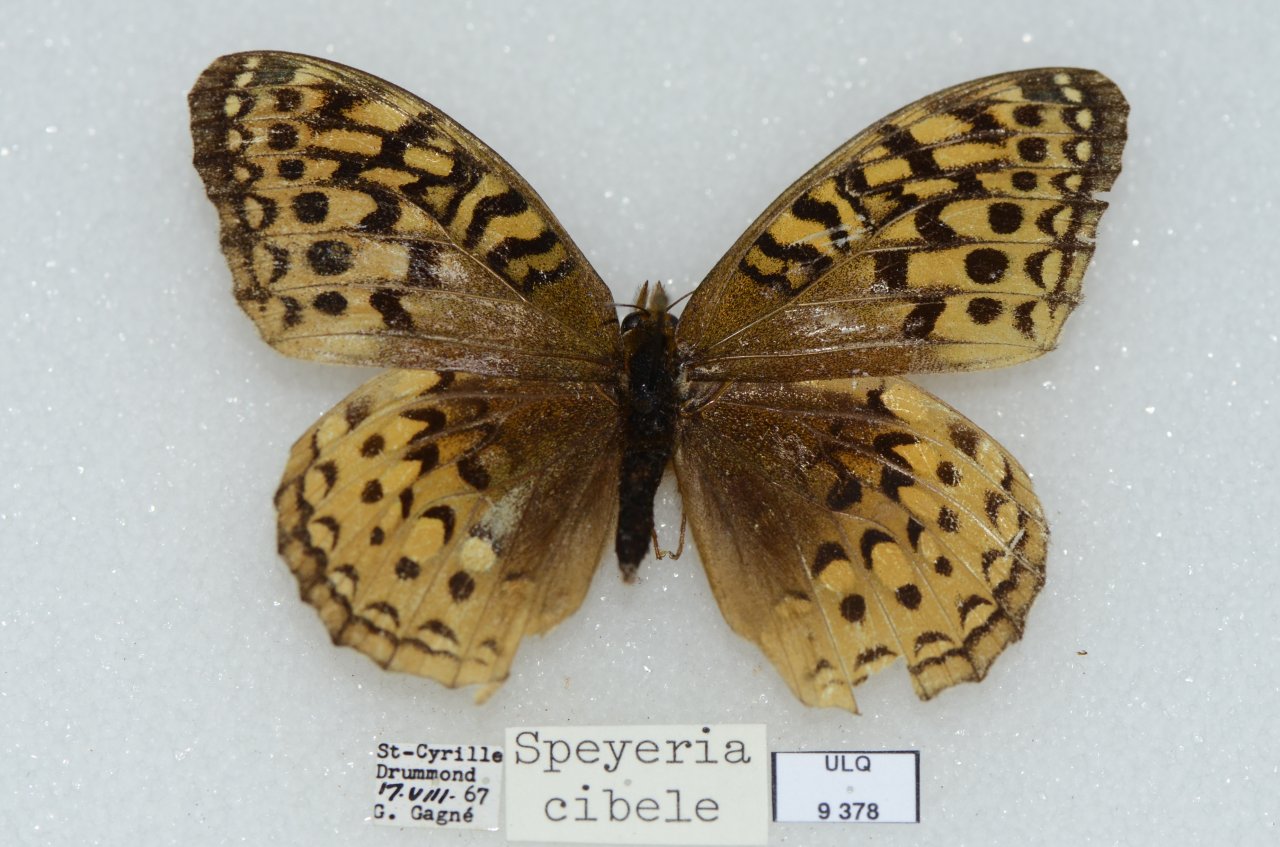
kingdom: Animalia
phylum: Arthropoda
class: Insecta
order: Lepidoptera
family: Nymphalidae
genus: Speyeria
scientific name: Speyeria cybele
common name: Great Spangled Fritillary
